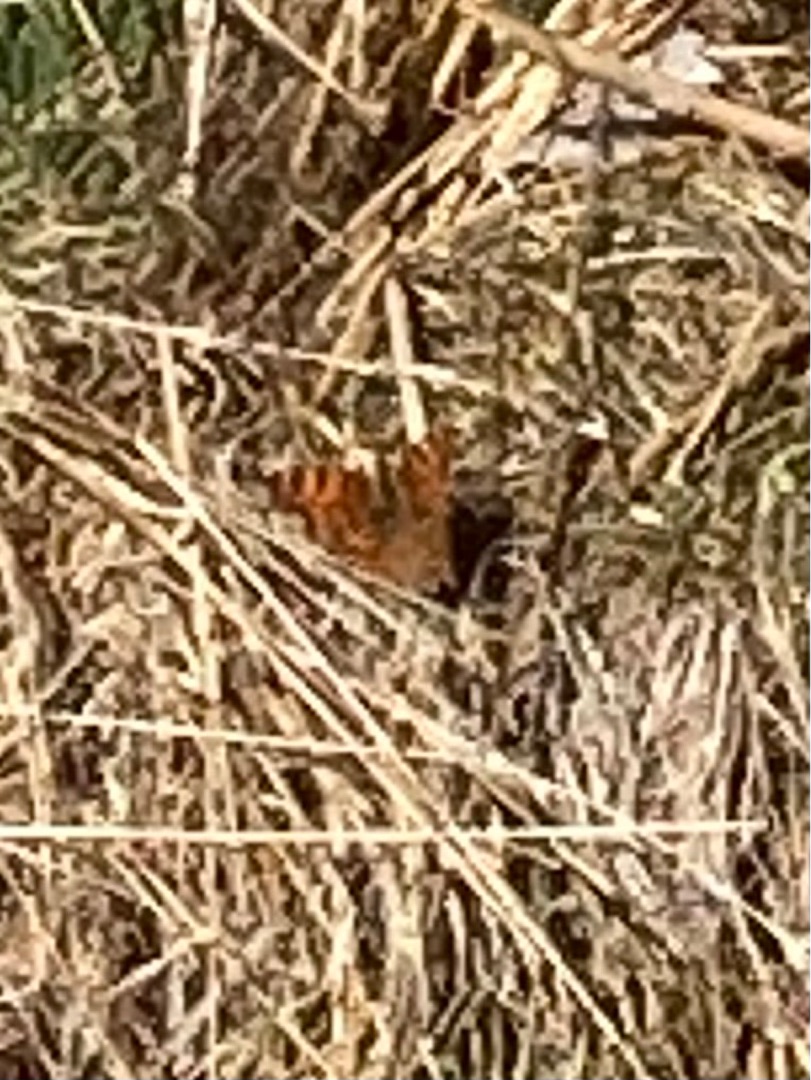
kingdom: Animalia
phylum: Arthropoda
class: Insecta
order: Lepidoptera
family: Nymphalidae
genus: Polygonia
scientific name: Polygonia c-album
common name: Det hvide C
